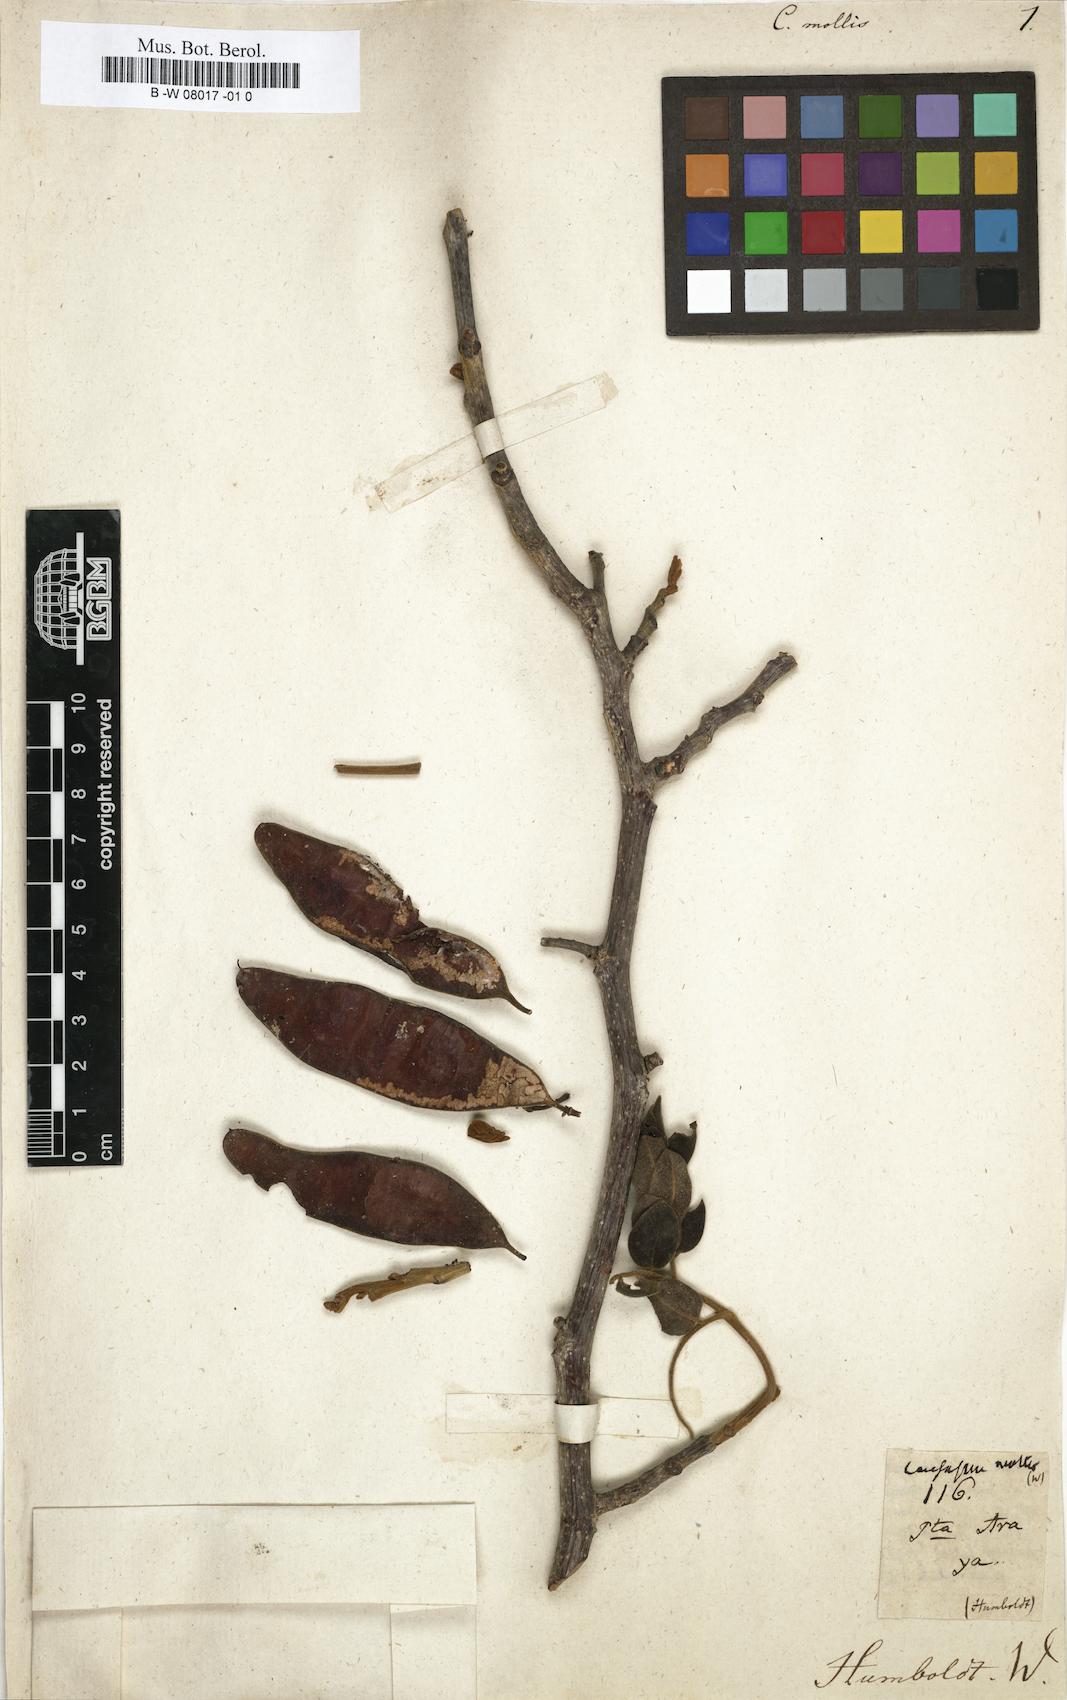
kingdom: Plantae
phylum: Tracheophyta
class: Magnoliopsida
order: Fabales
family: Fabaceae
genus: Coulteria
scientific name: Coulteria mollis
